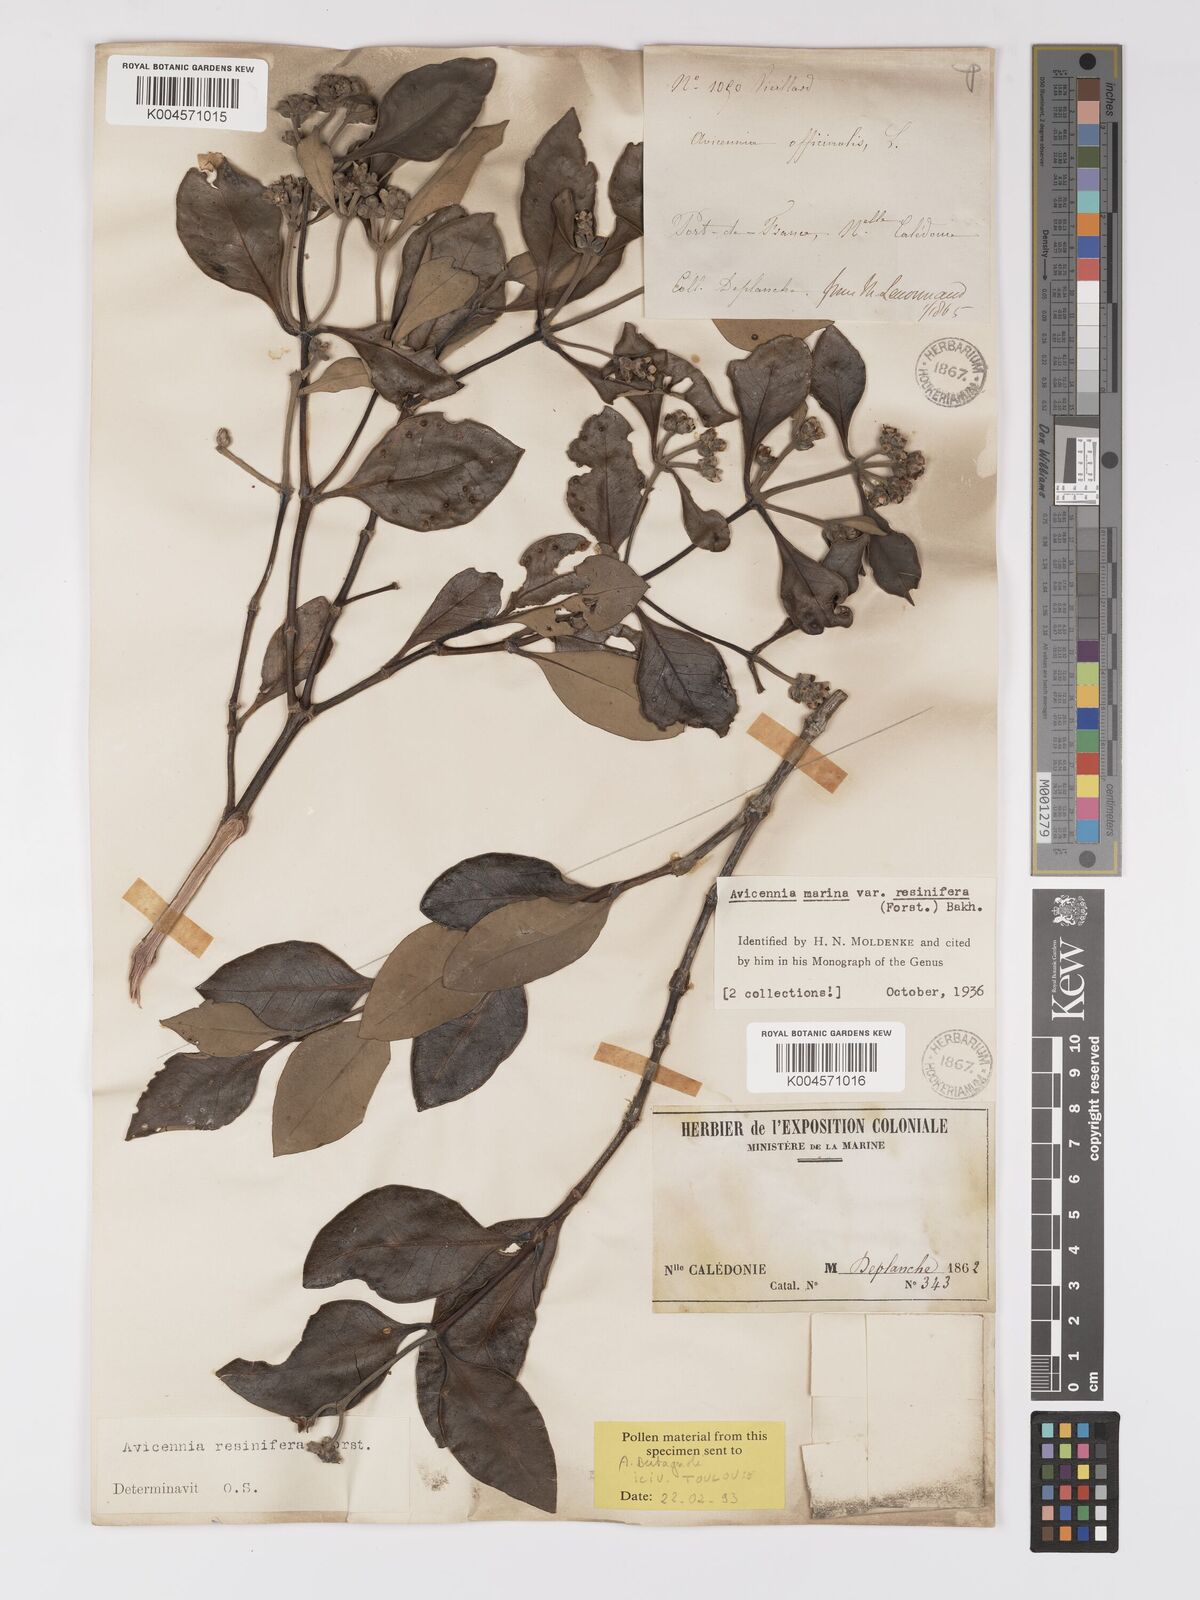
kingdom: Plantae
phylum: Tracheophyta
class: Magnoliopsida
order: Lamiales
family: Acanthaceae
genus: Avicennia
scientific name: Avicennia marina
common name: Gray mangrove
